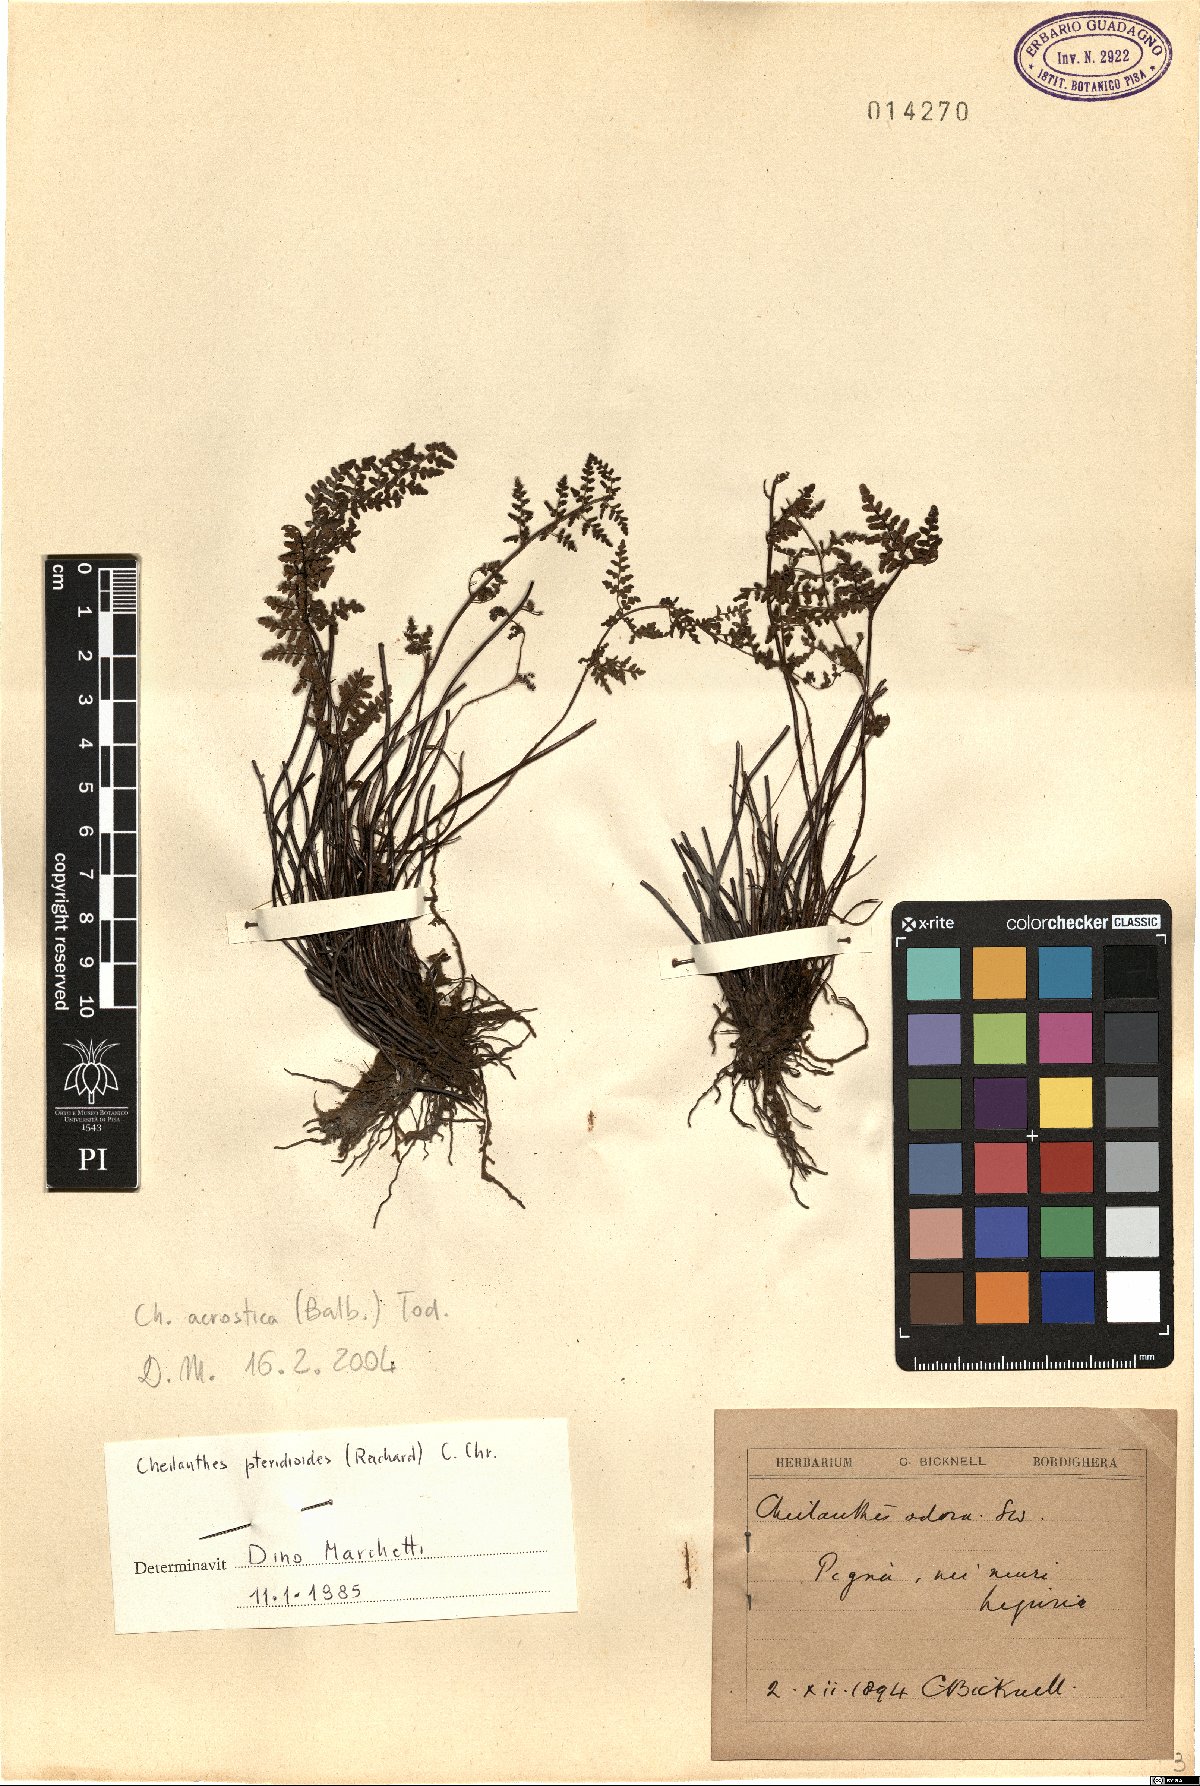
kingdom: Plantae
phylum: Tracheophyta
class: Polypodiopsida
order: Polypodiales
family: Pteridaceae
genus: Oeosporangium
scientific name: Oeosporangium pteridioides
